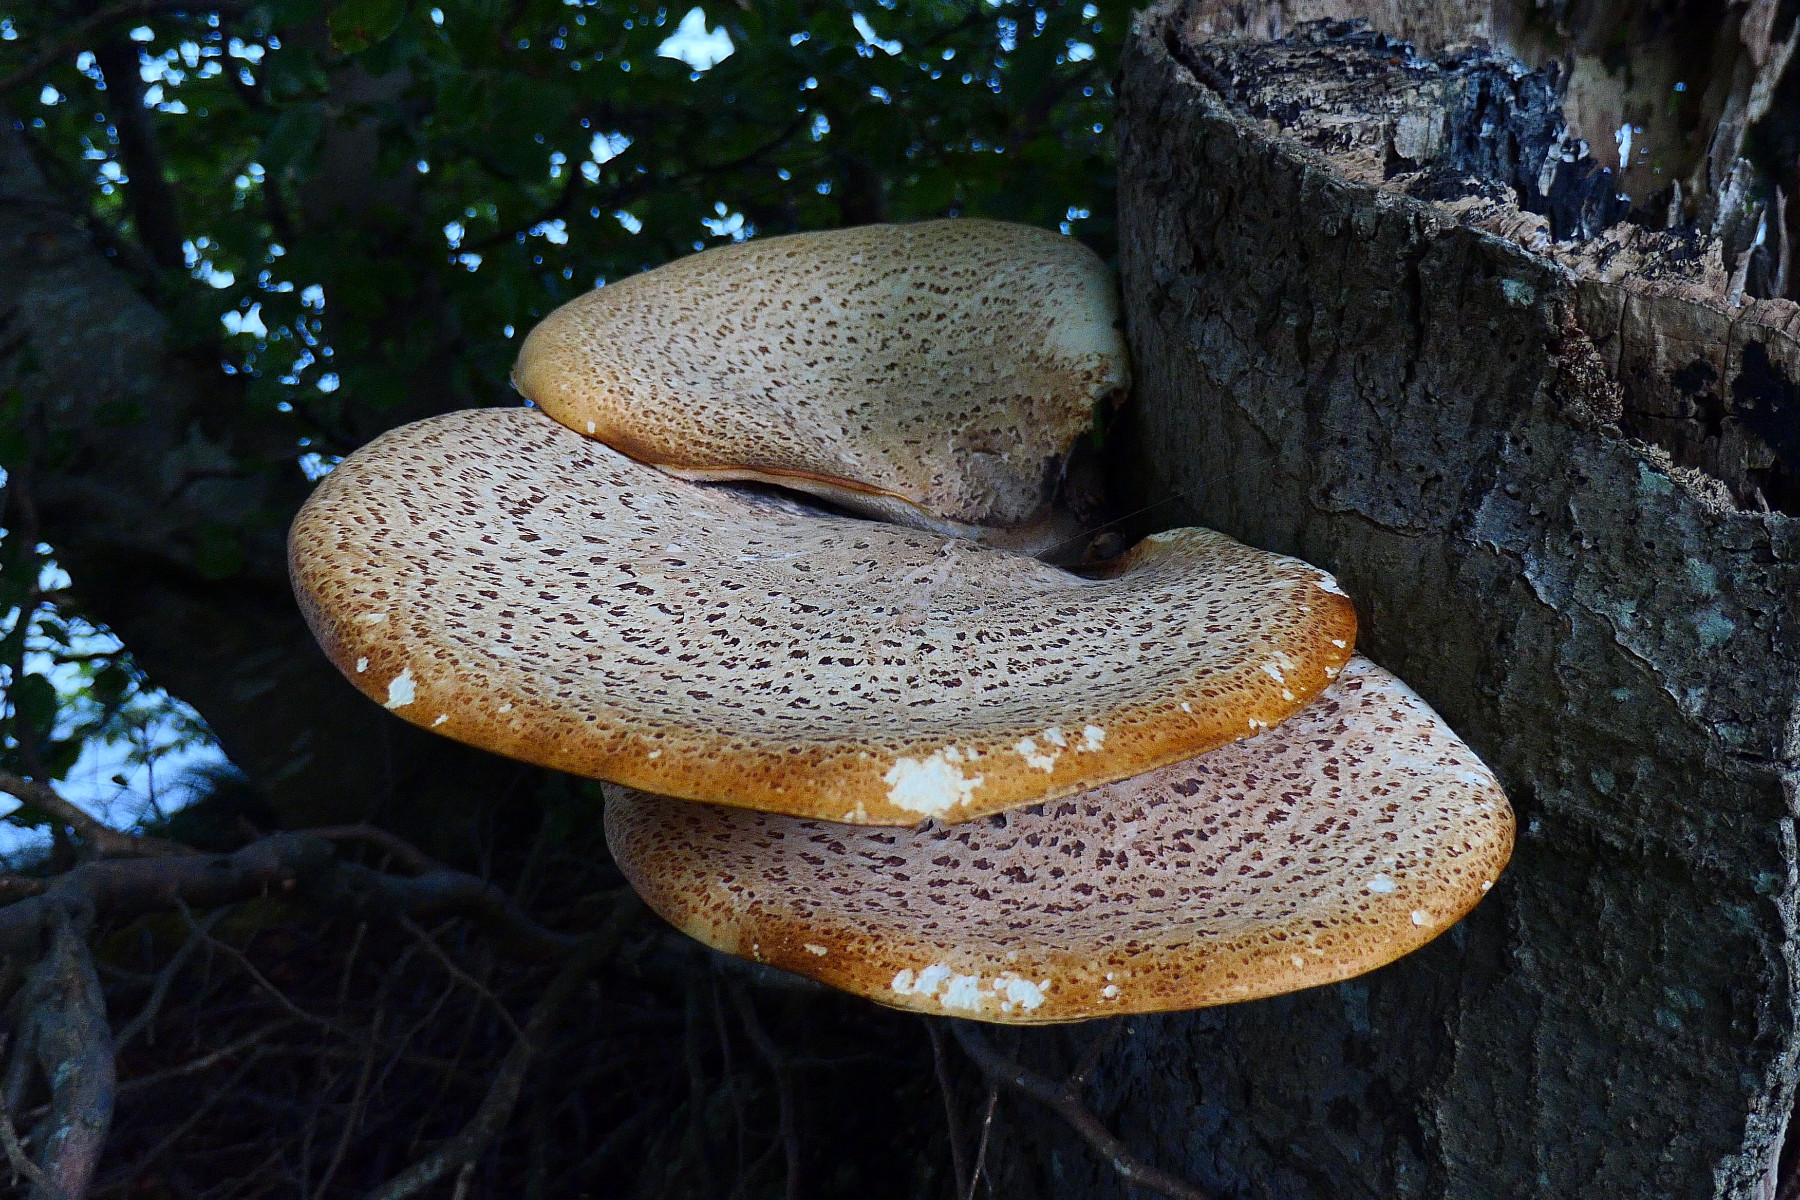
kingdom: Fungi
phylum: Basidiomycota
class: Agaricomycetes
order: Polyporales
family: Polyporaceae
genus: Cerioporus
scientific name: Cerioporus squamosus
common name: skællet stilkporesvamp
